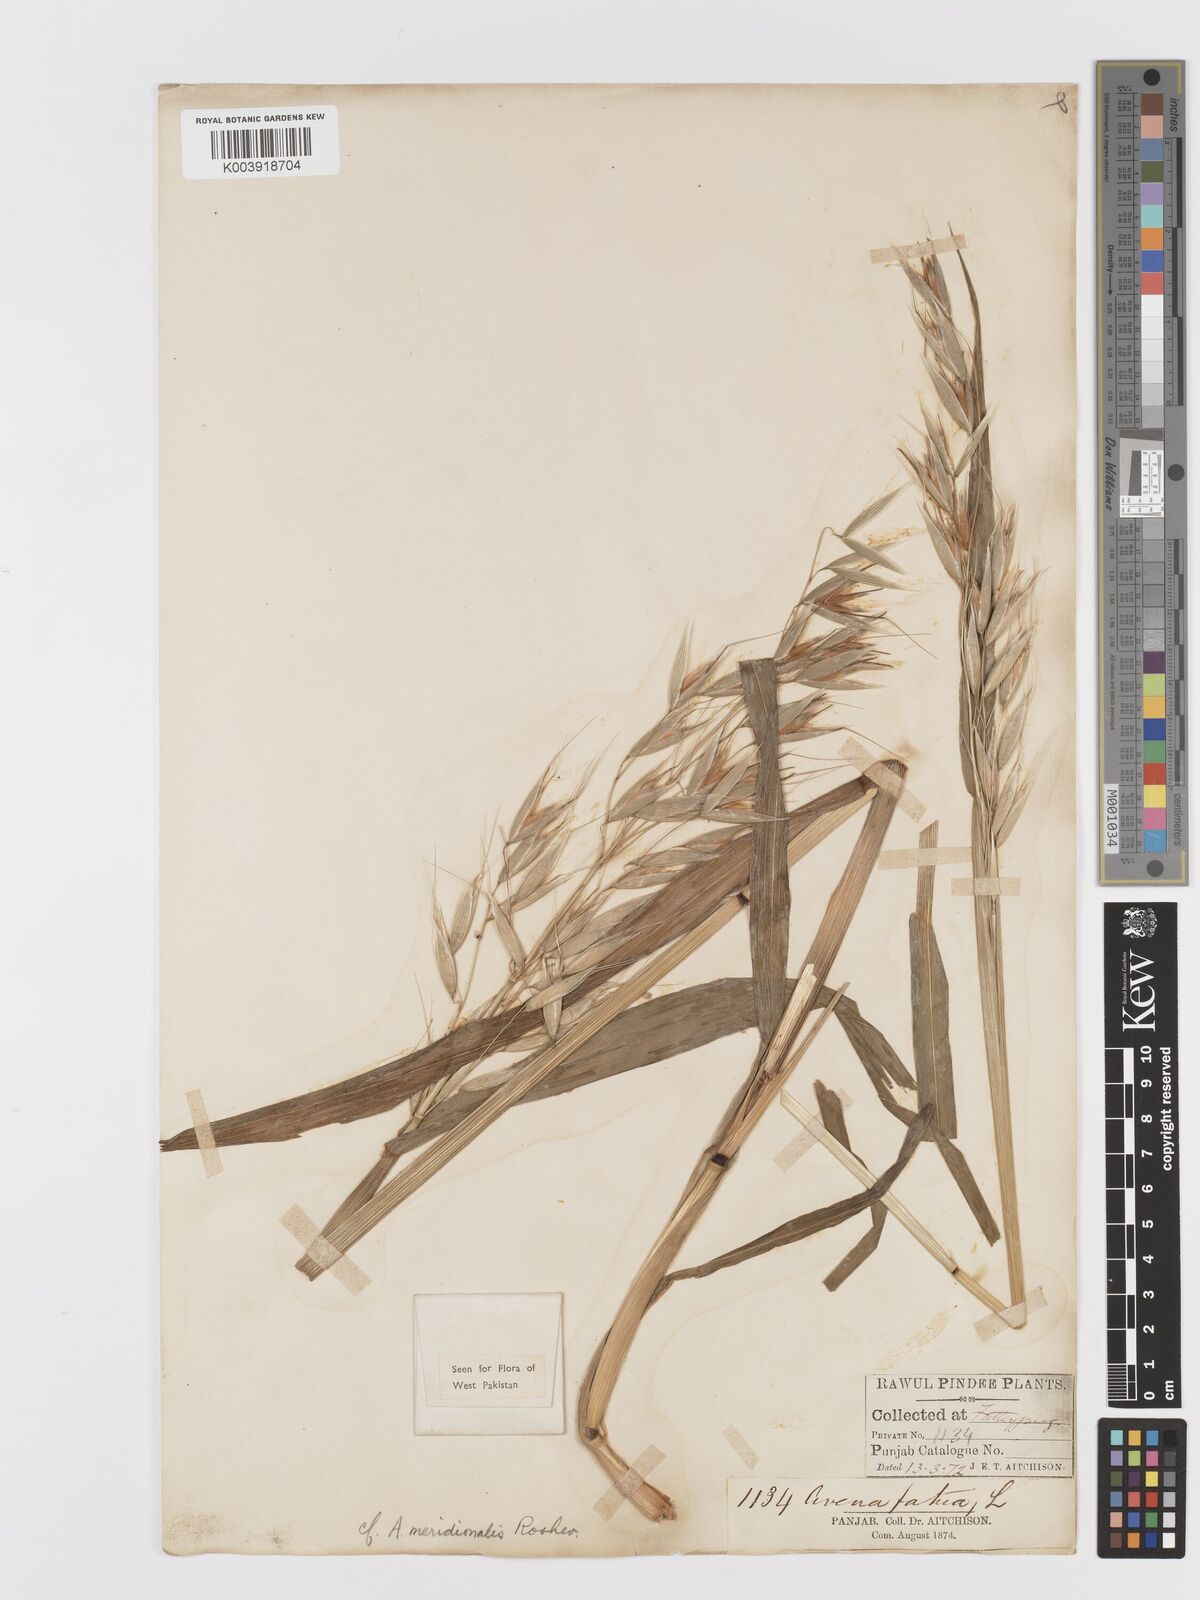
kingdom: Plantae
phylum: Tracheophyta
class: Liliopsida
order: Poales
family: Poaceae
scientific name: Poaceae
